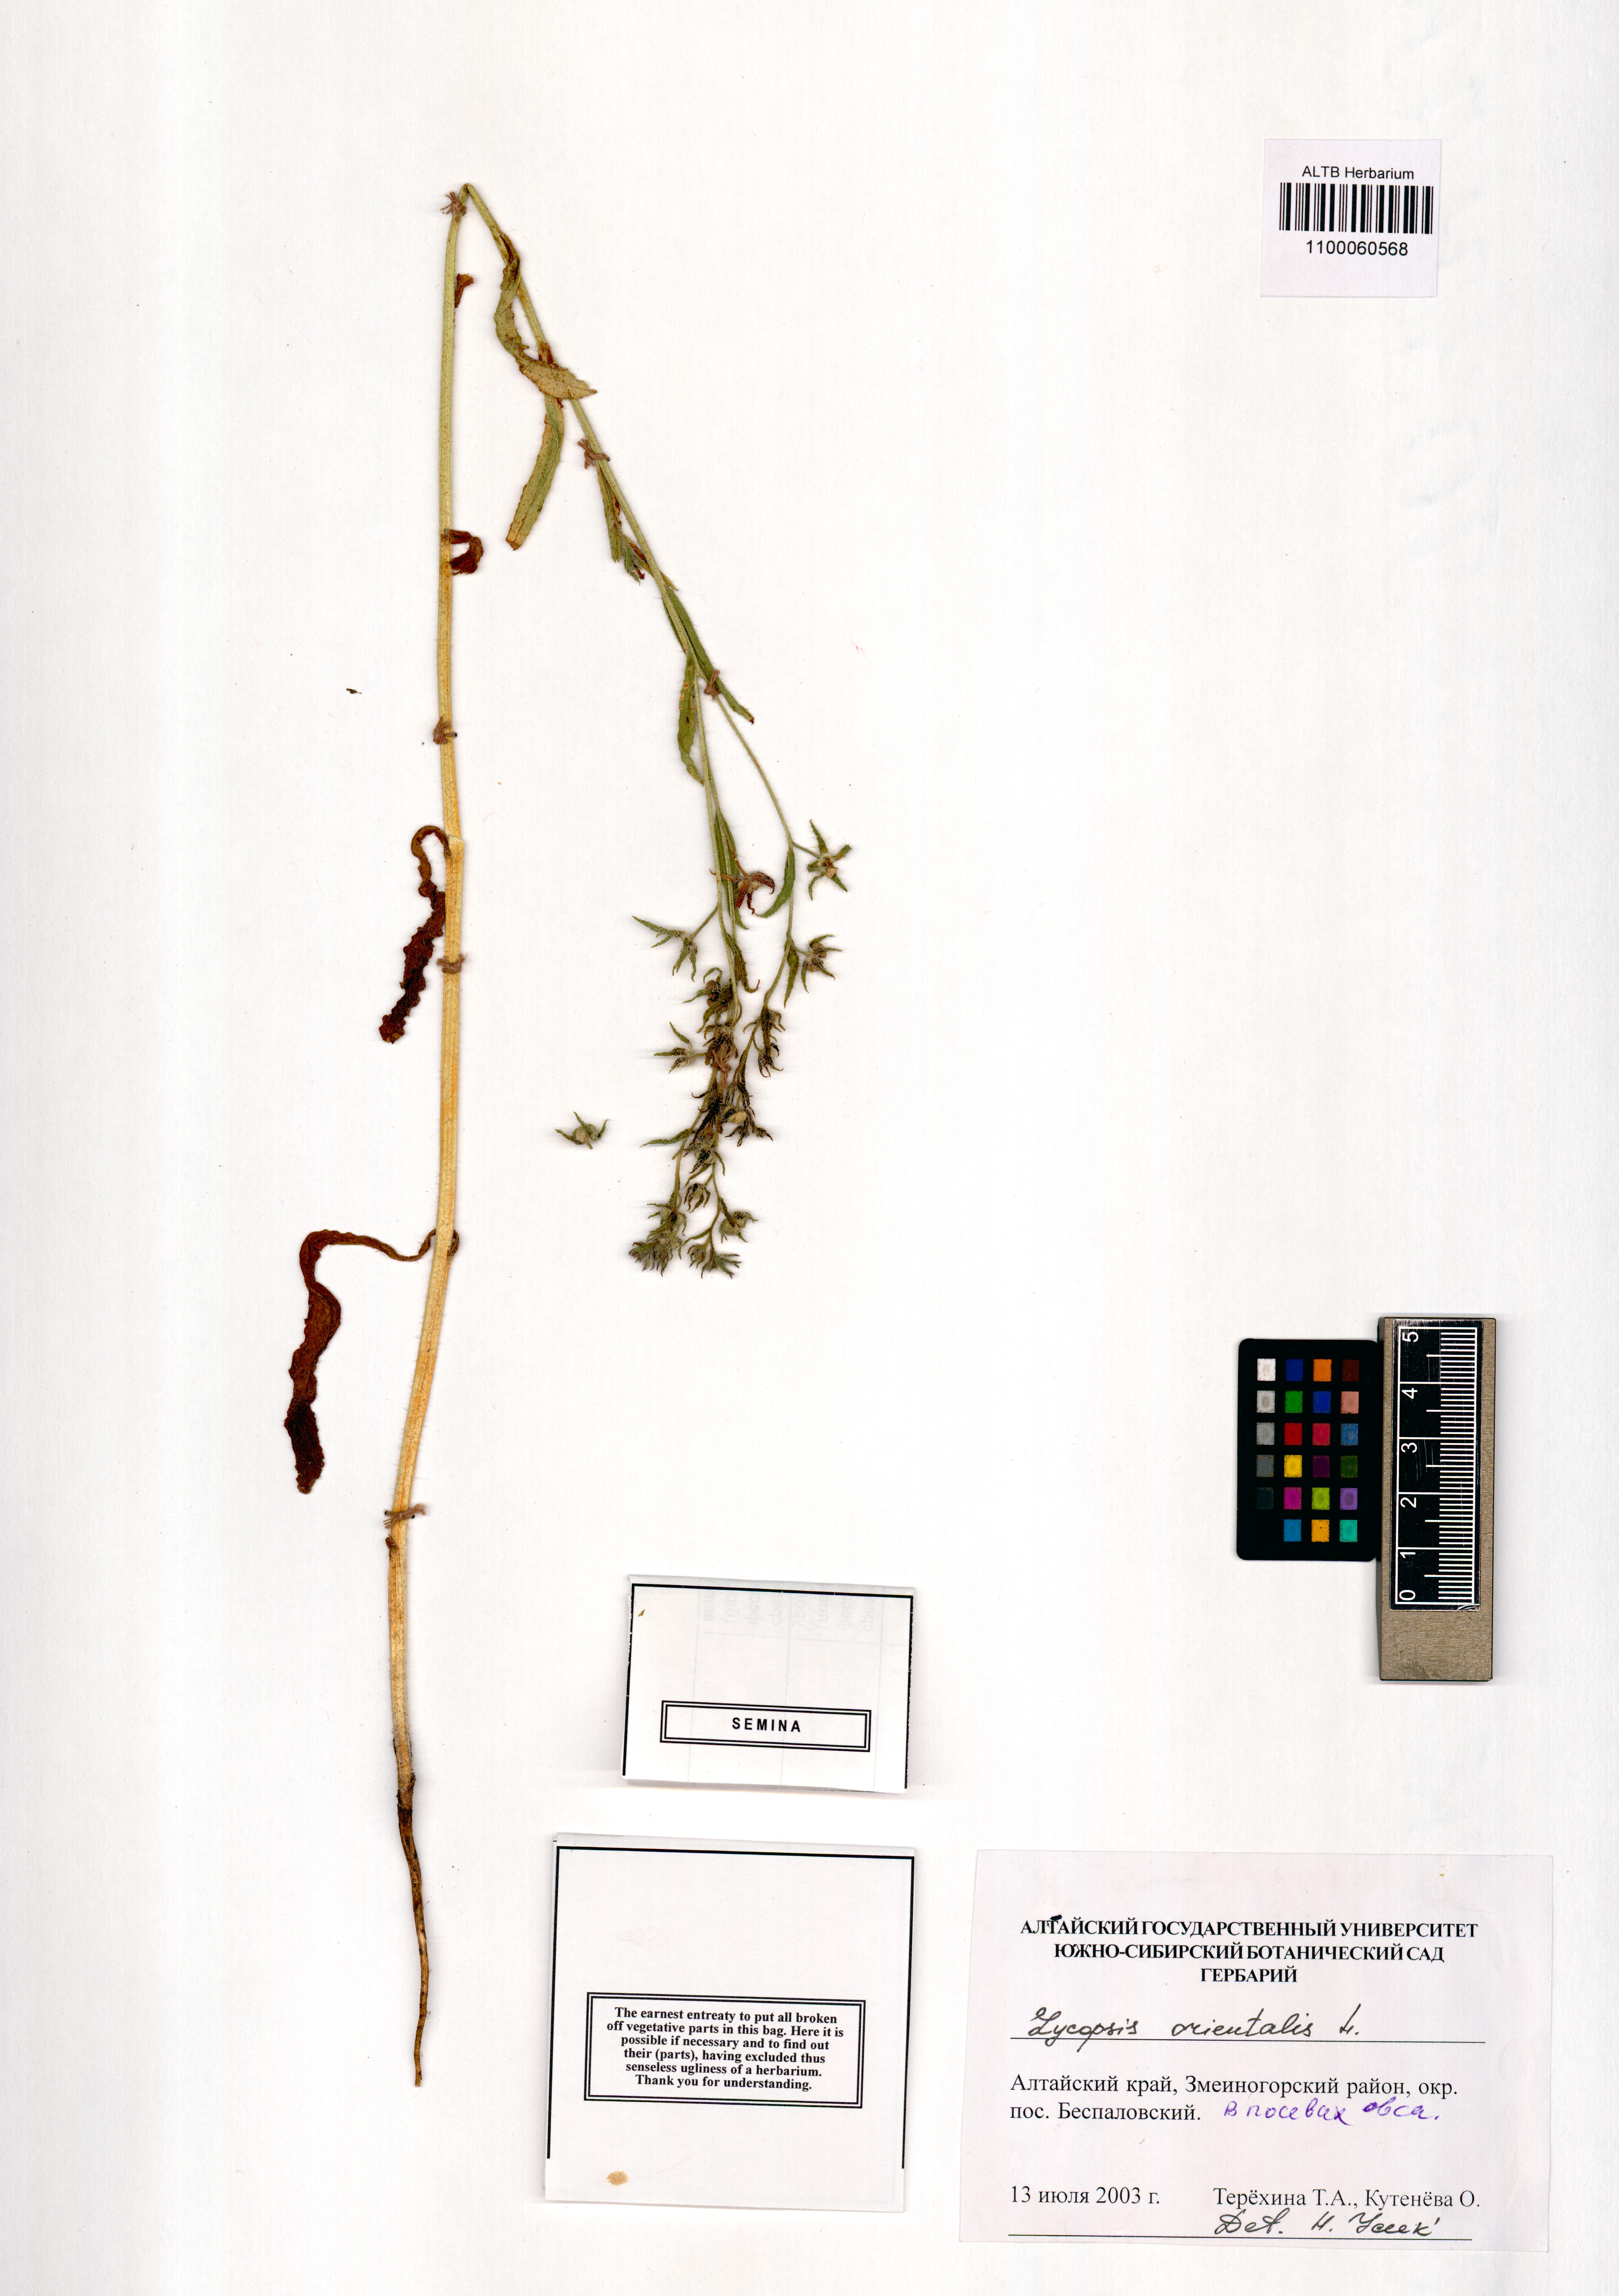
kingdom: Plantae
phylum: Tracheophyta
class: Magnoliopsida
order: Boraginales
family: Boraginaceae
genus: Lycopsis
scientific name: Lycopsis arvensis
